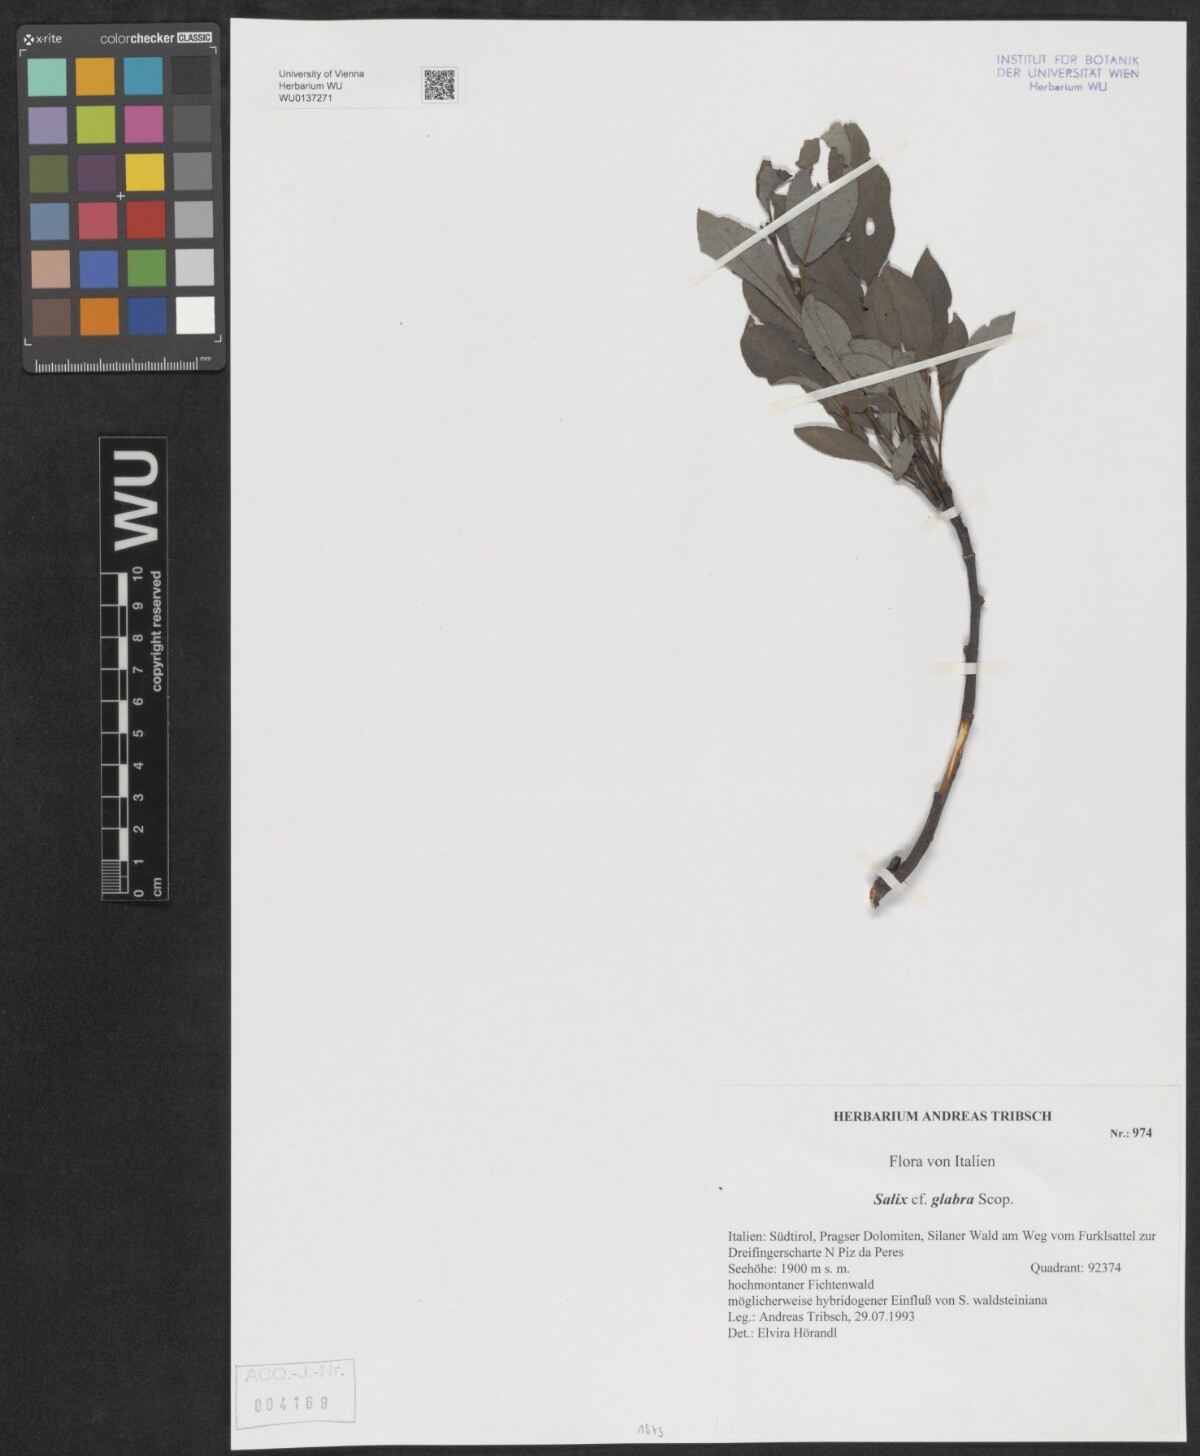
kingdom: Plantae
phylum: Tracheophyta
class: Magnoliopsida
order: Malpighiales
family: Salicaceae
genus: Salix
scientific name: Salix glabra
